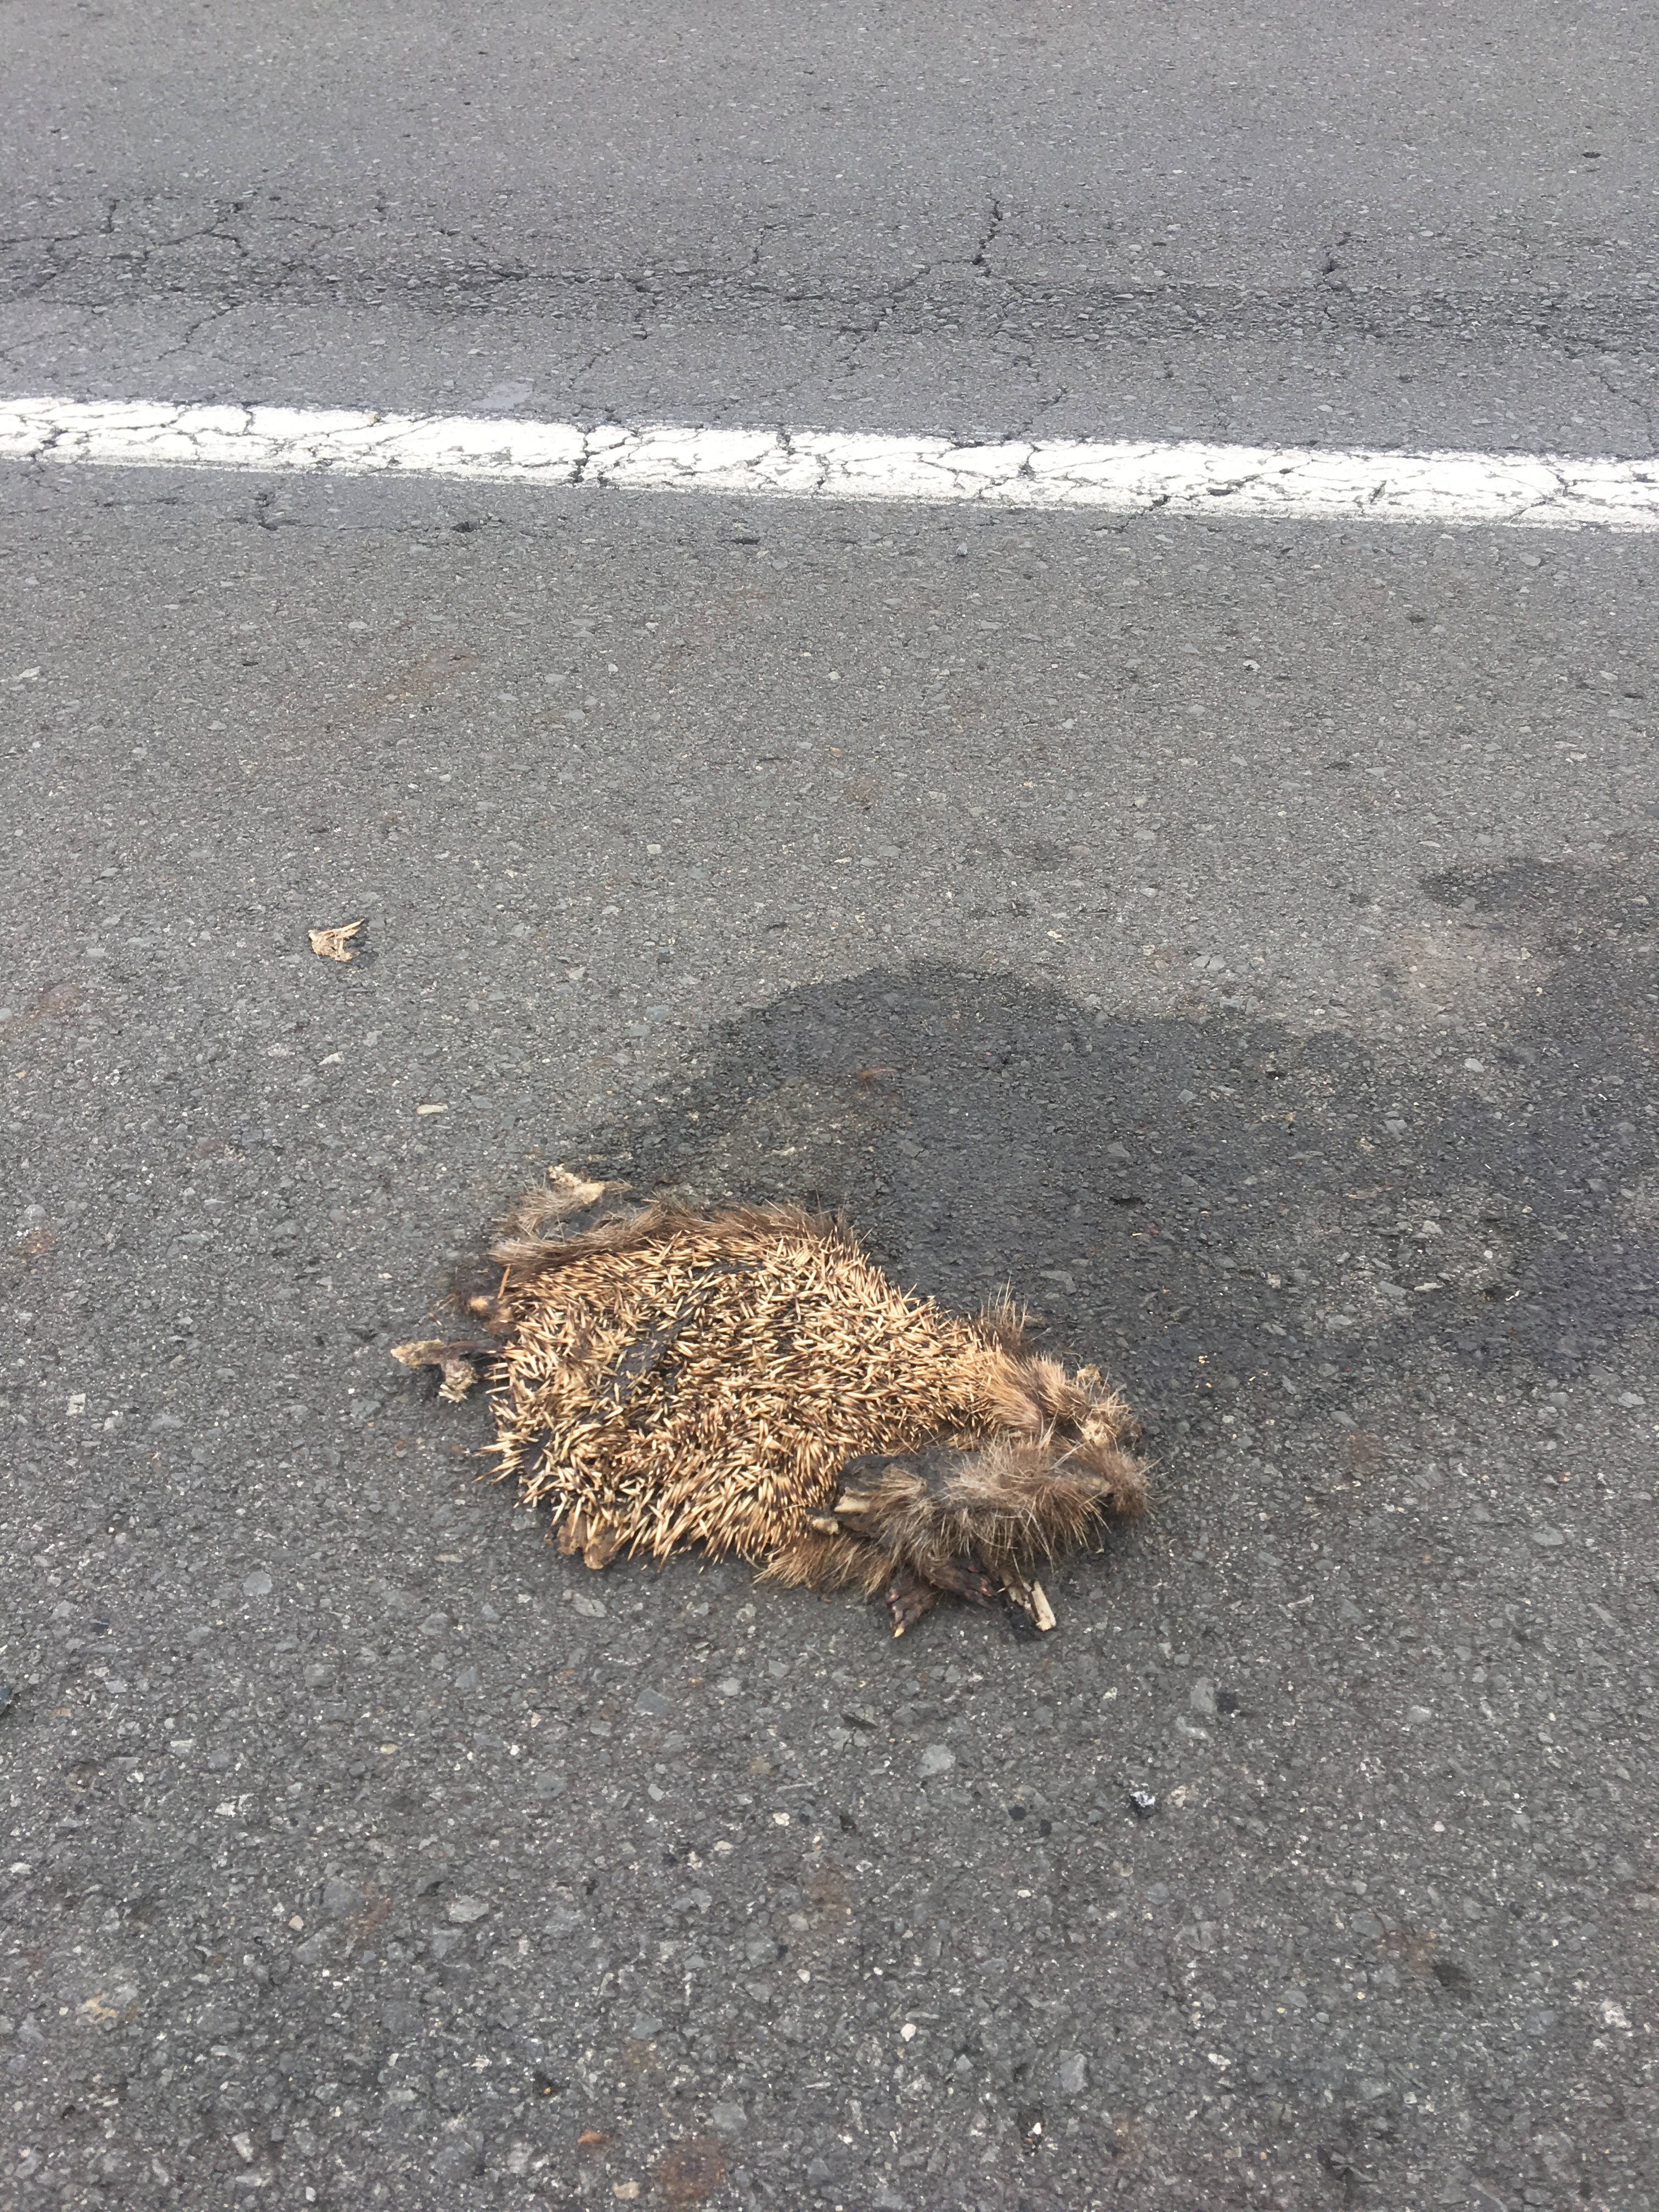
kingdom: Animalia
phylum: Chordata
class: Mammalia
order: Erinaceomorpha
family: Erinaceidae
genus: Erinaceus
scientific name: Erinaceus
